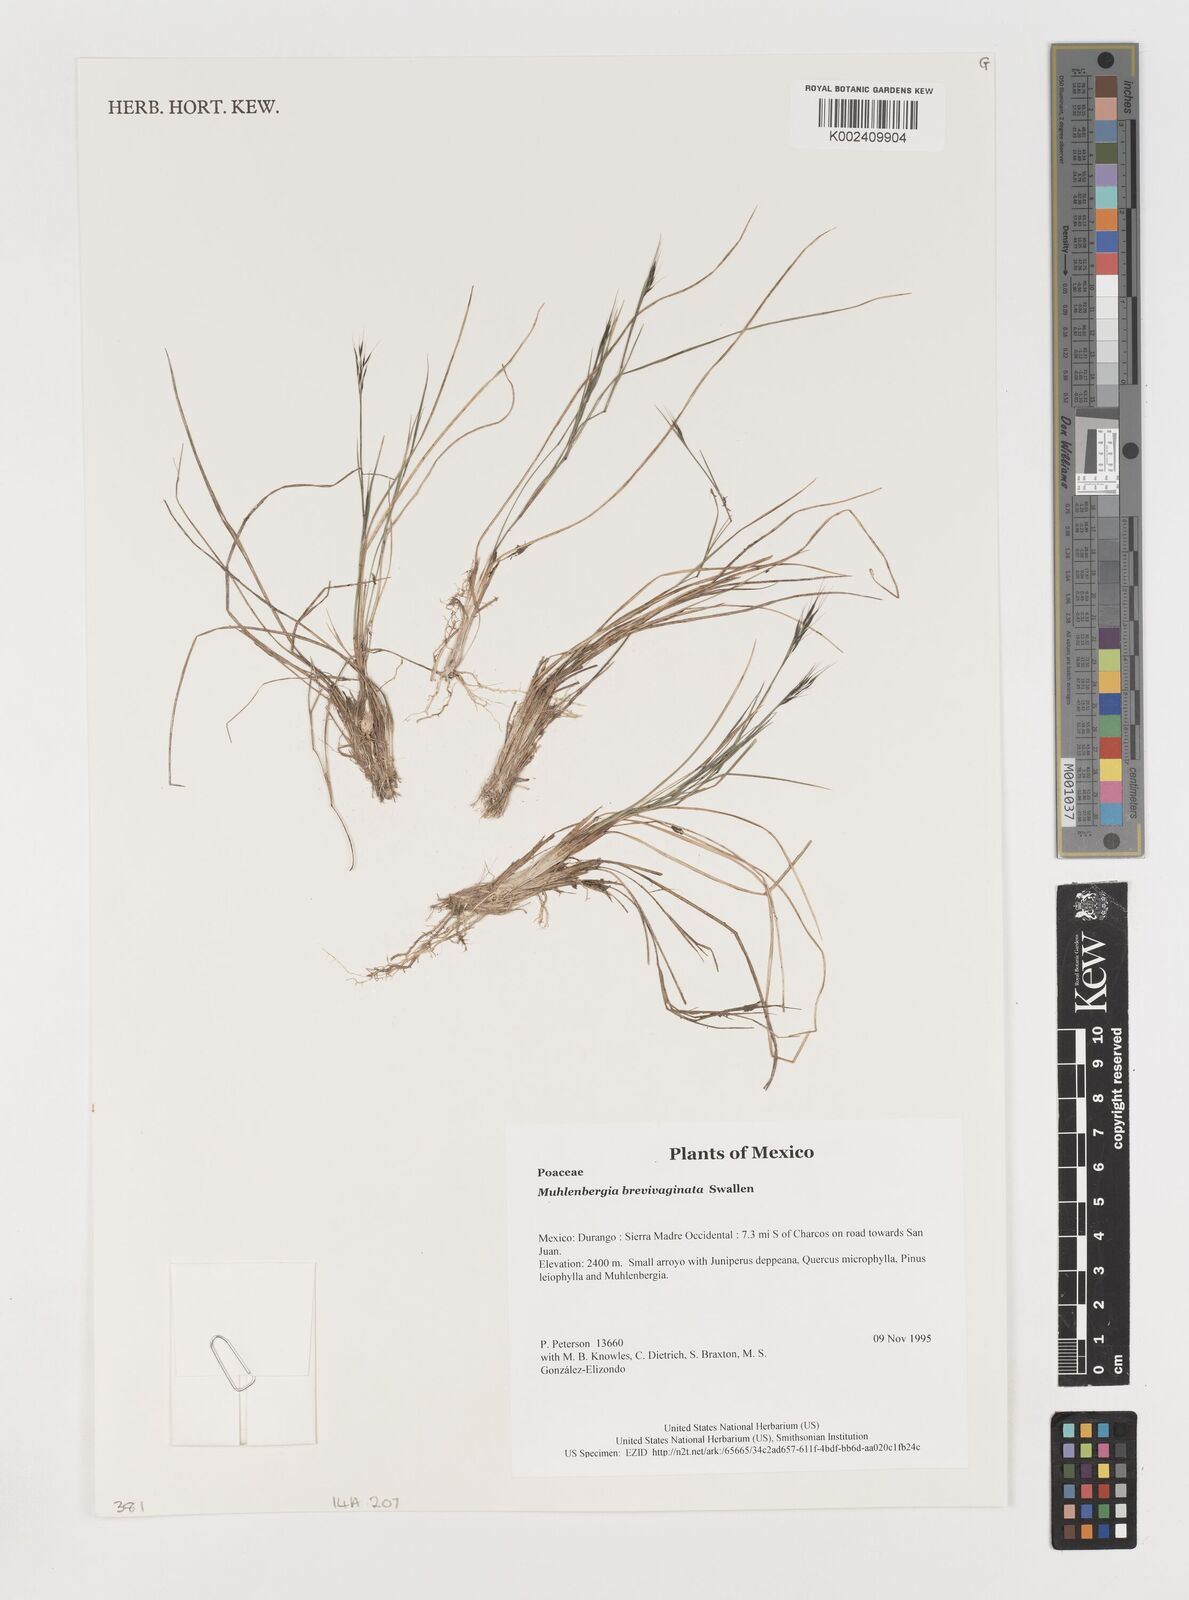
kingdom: Plantae
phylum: Tracheophyta
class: Liliopsida
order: Poales
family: Poaceae
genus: Muhlenbergia
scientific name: Muhlenbergia brevivaginata
